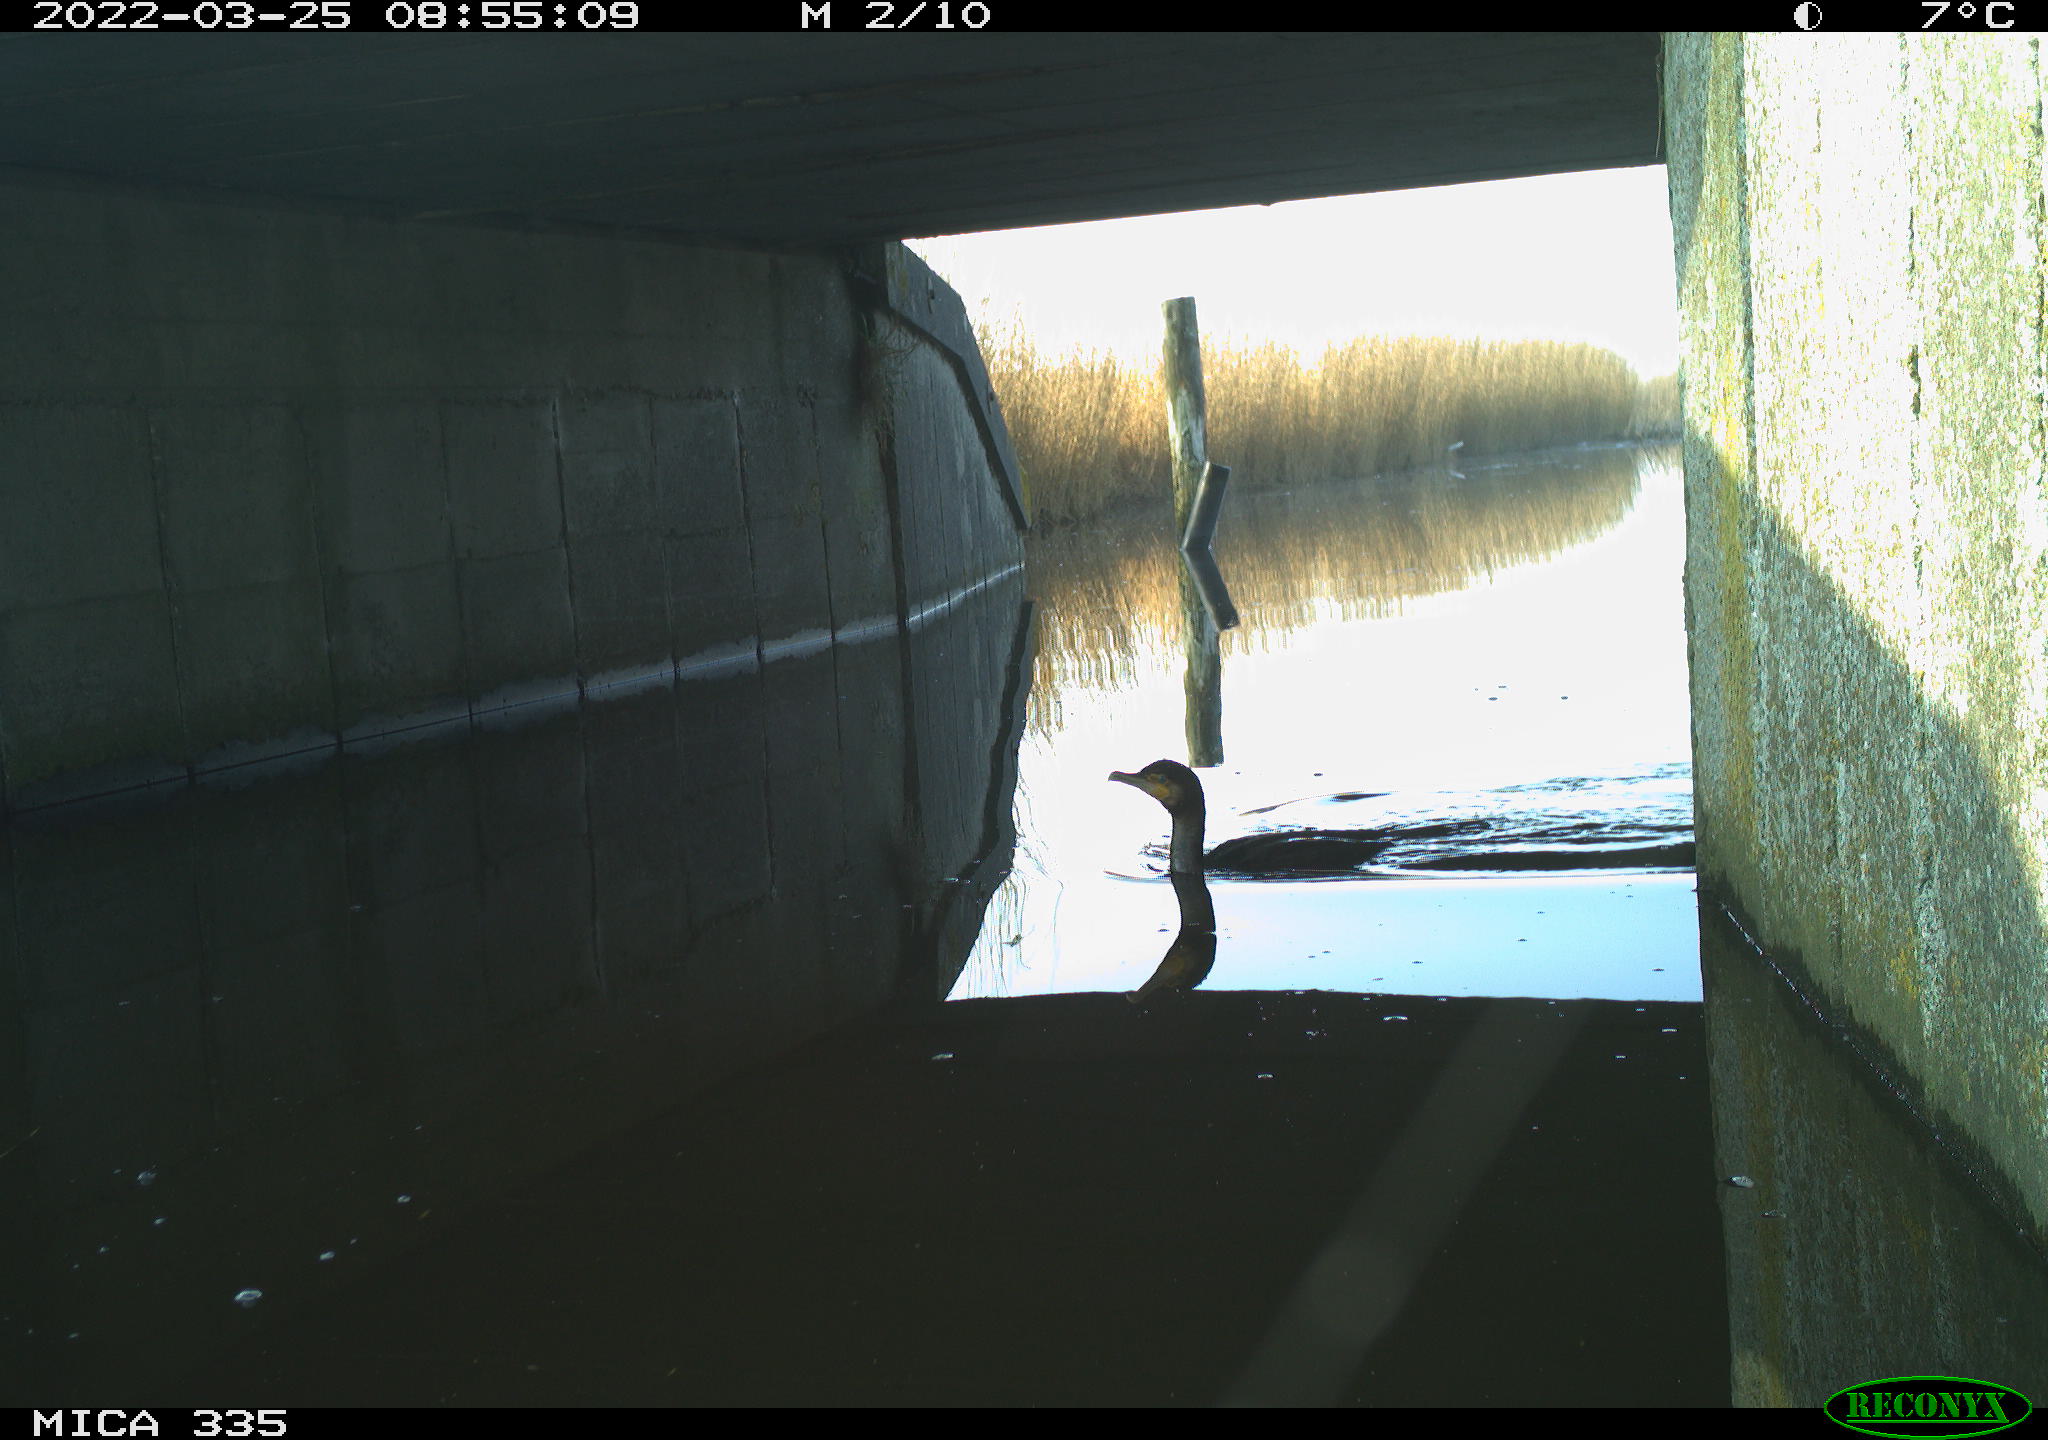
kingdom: Animalia
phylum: Chordata
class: Aves
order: Suliformes
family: Phalacrocoracidae
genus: Phalacrocorax
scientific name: Phalacrocorax carbo
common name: Great cormorant
